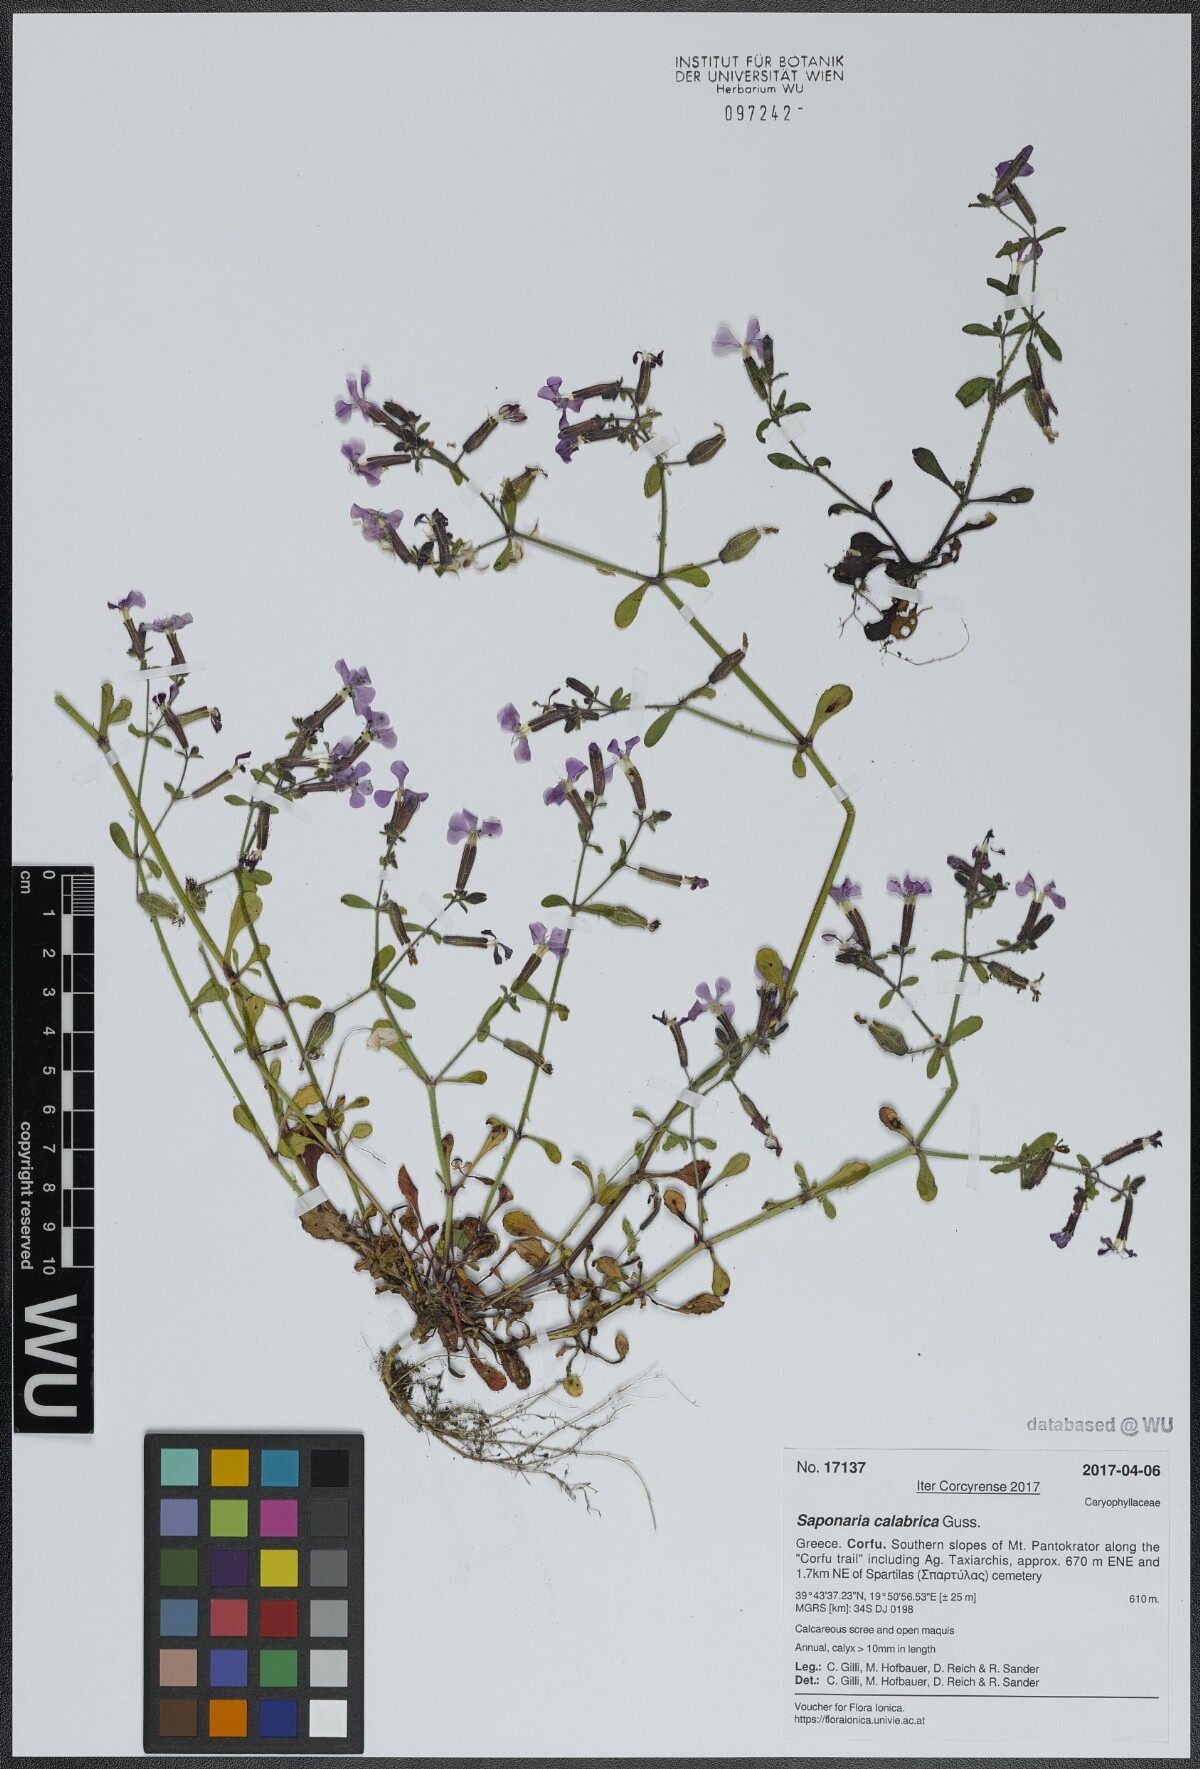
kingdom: Plantae
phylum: Tracheophyta
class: Magnoliopsida
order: Caryophyllales
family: Caryophyllaceae
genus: Saponaria
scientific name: Saponaria calabrica
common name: Adriatic soapwort
